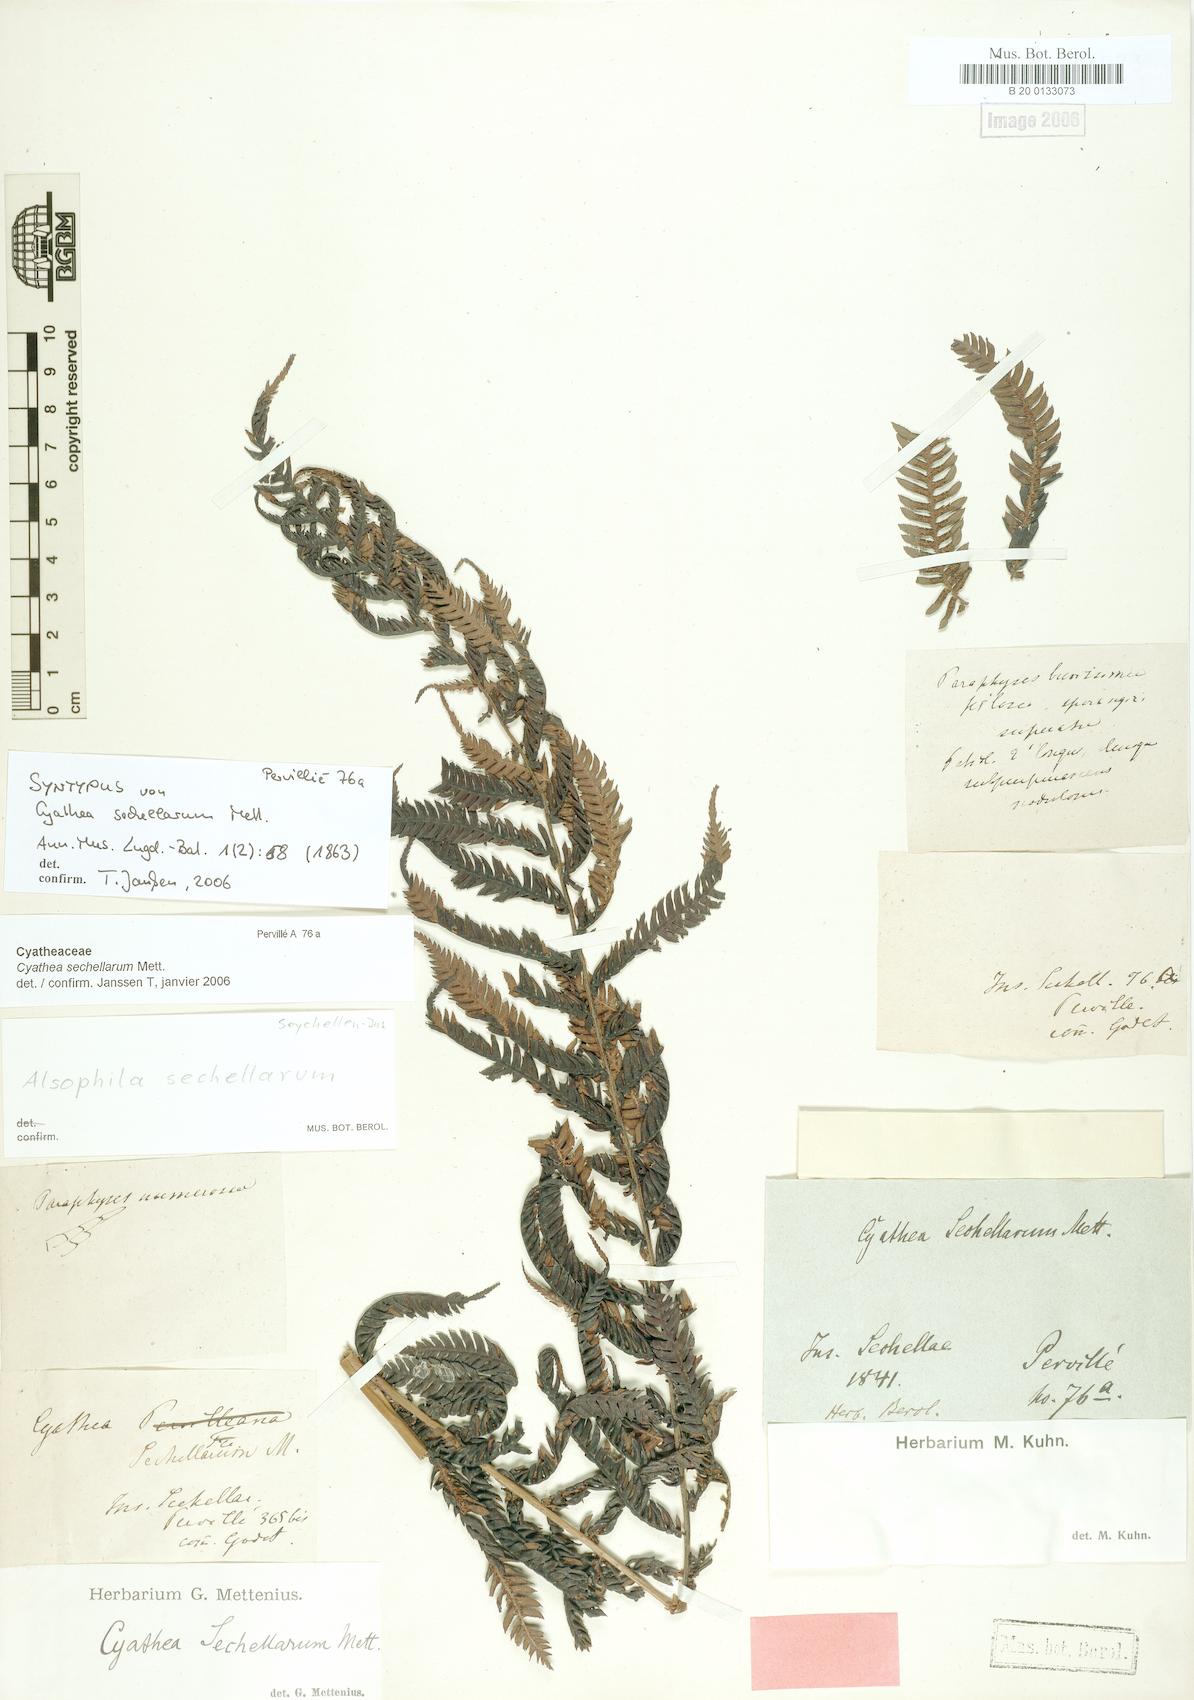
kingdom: Plantae
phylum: Tracheophyta
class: Polypodiopsida
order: Cyatheales
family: Cyatheaceae
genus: Alsophila
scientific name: Alsophila sechellarum
